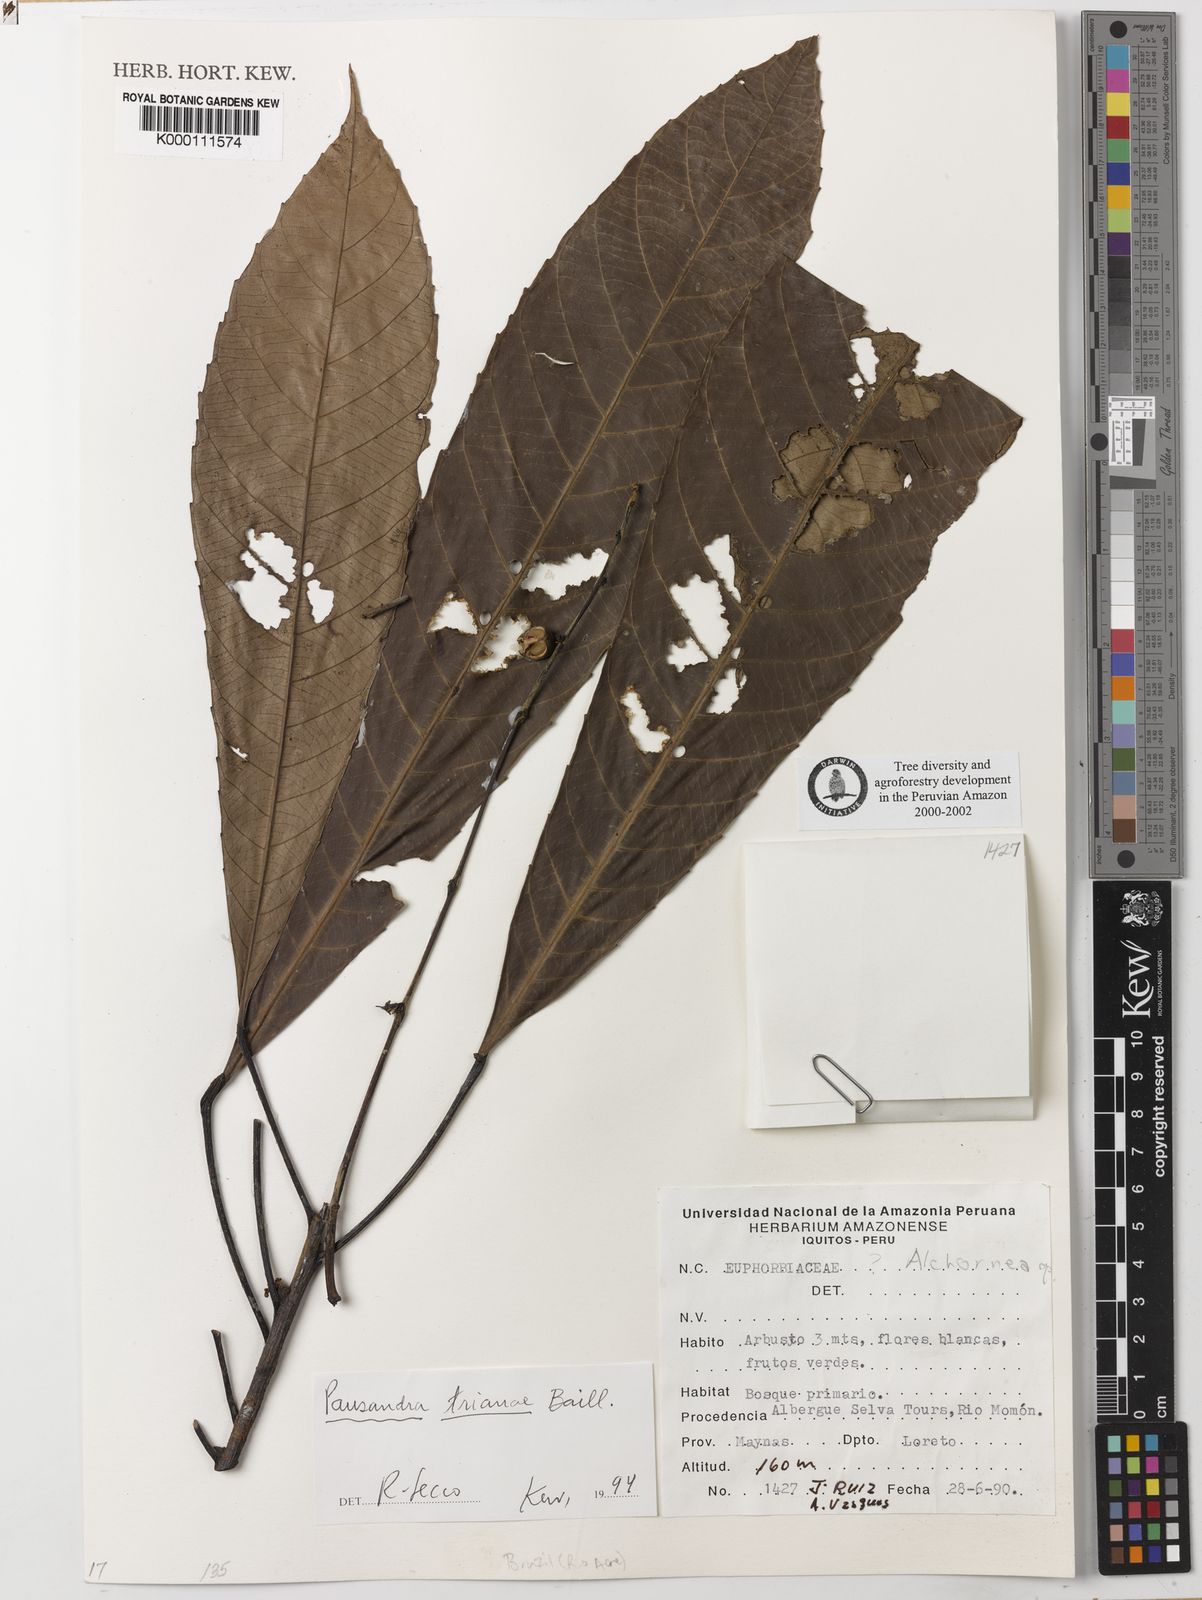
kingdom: Plantae
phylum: Tracheophyta
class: Magnoliopsida
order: Malpighiales
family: Euphorbiaceae
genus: Pausandra
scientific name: Pausandra
